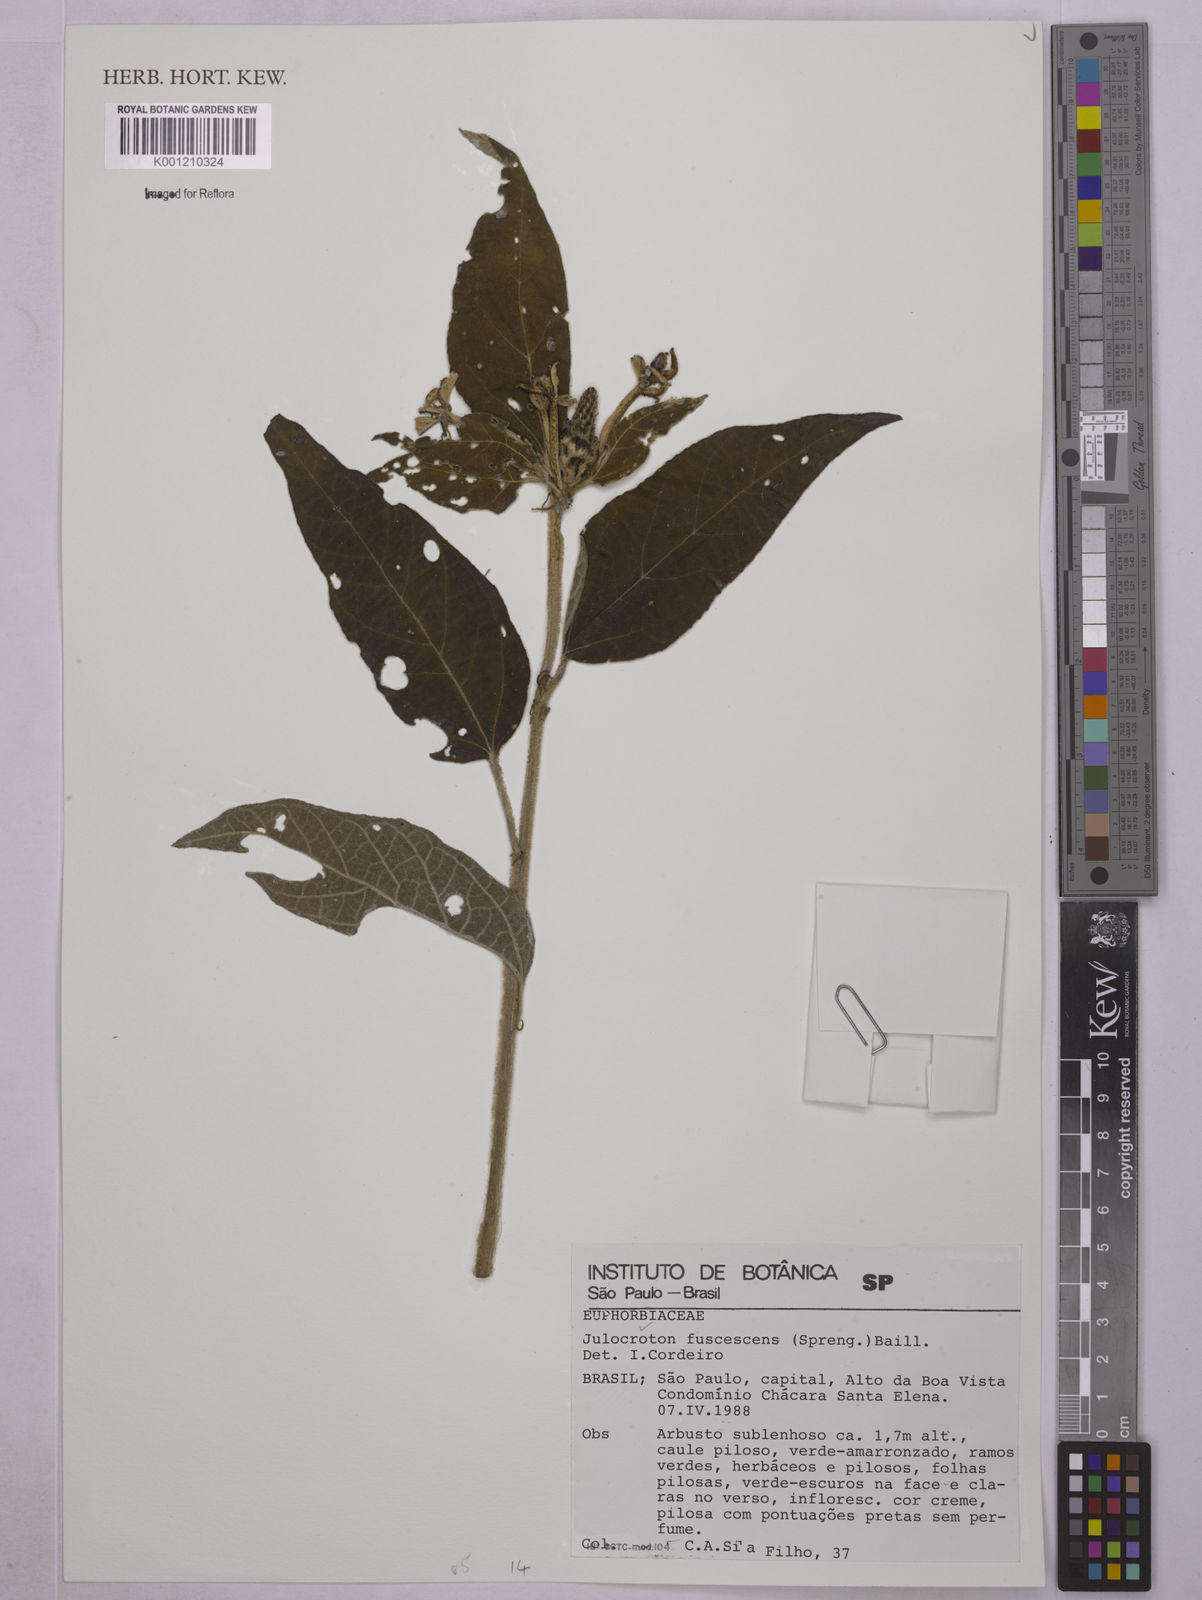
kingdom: Plantae
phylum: Tracheophyta
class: Magnoliopsida
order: Malpighiales
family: Euphorbiaceae
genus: Croton
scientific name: Croton gnaphaloides
